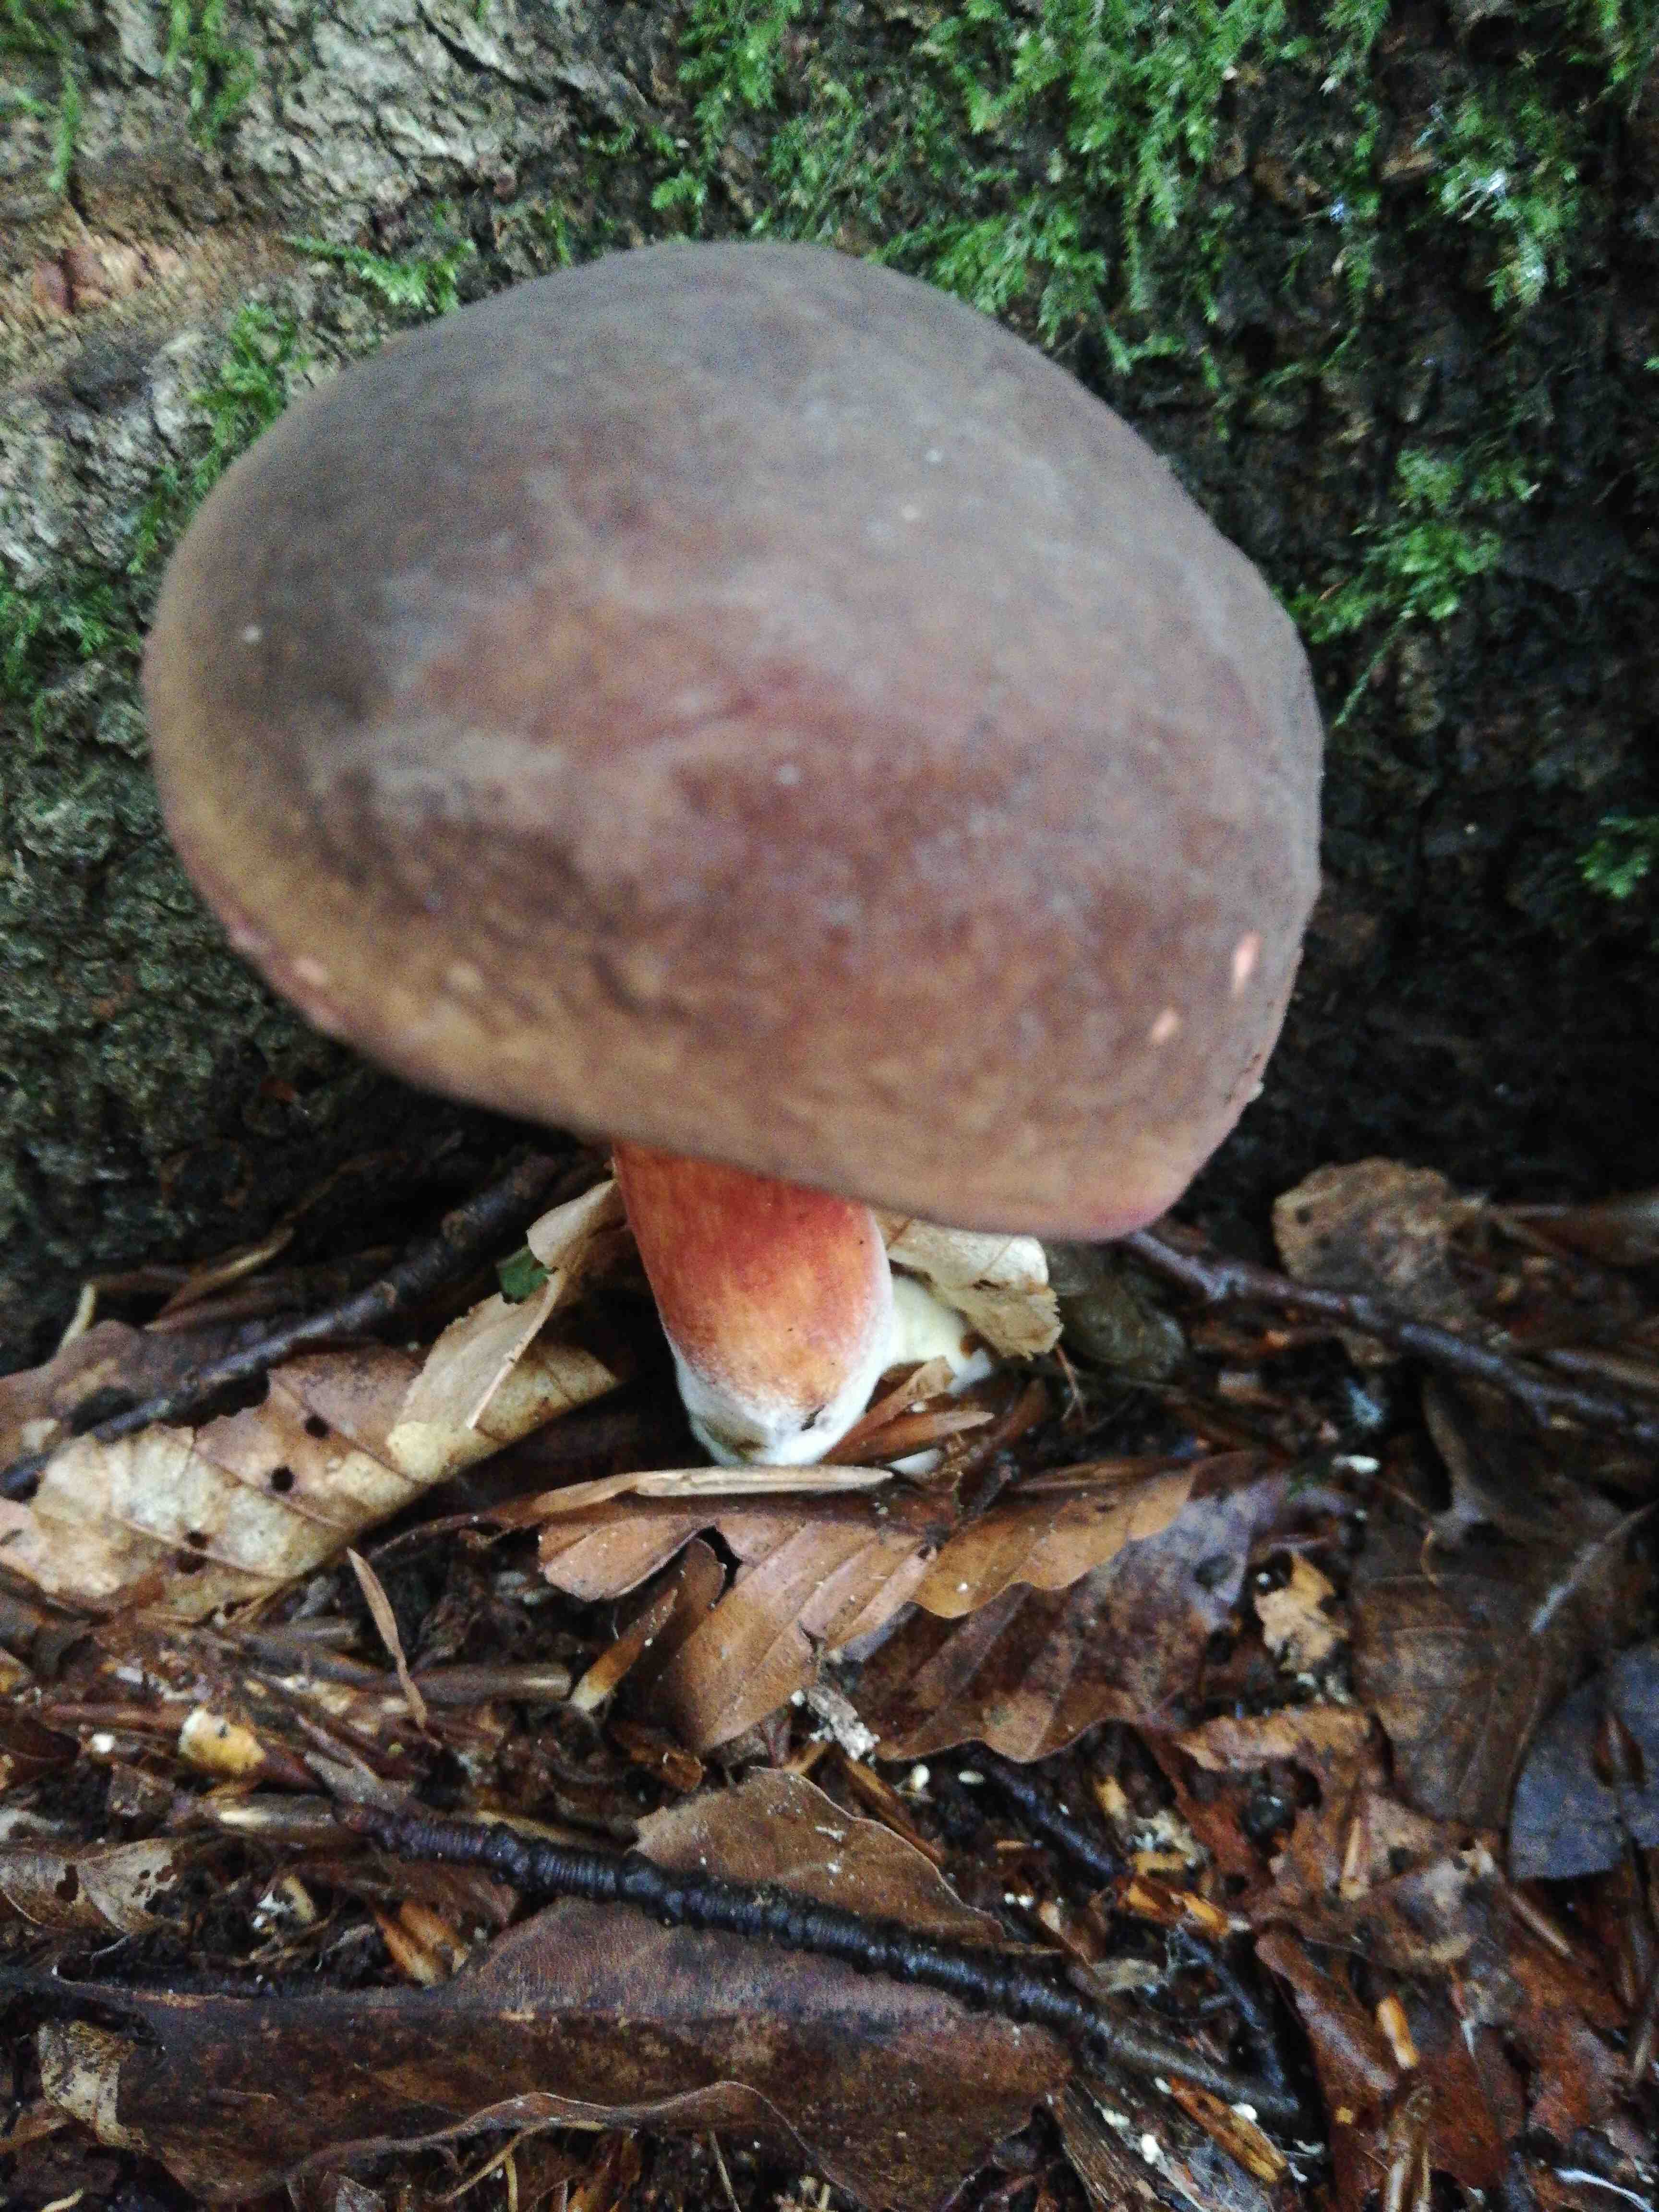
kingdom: Fungi
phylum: Basidiomycota
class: Agaricomycetes
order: Boletales
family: Boletaceae
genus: Xerocomellus
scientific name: Xerocomellus pruinatus
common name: dugget rørhat
